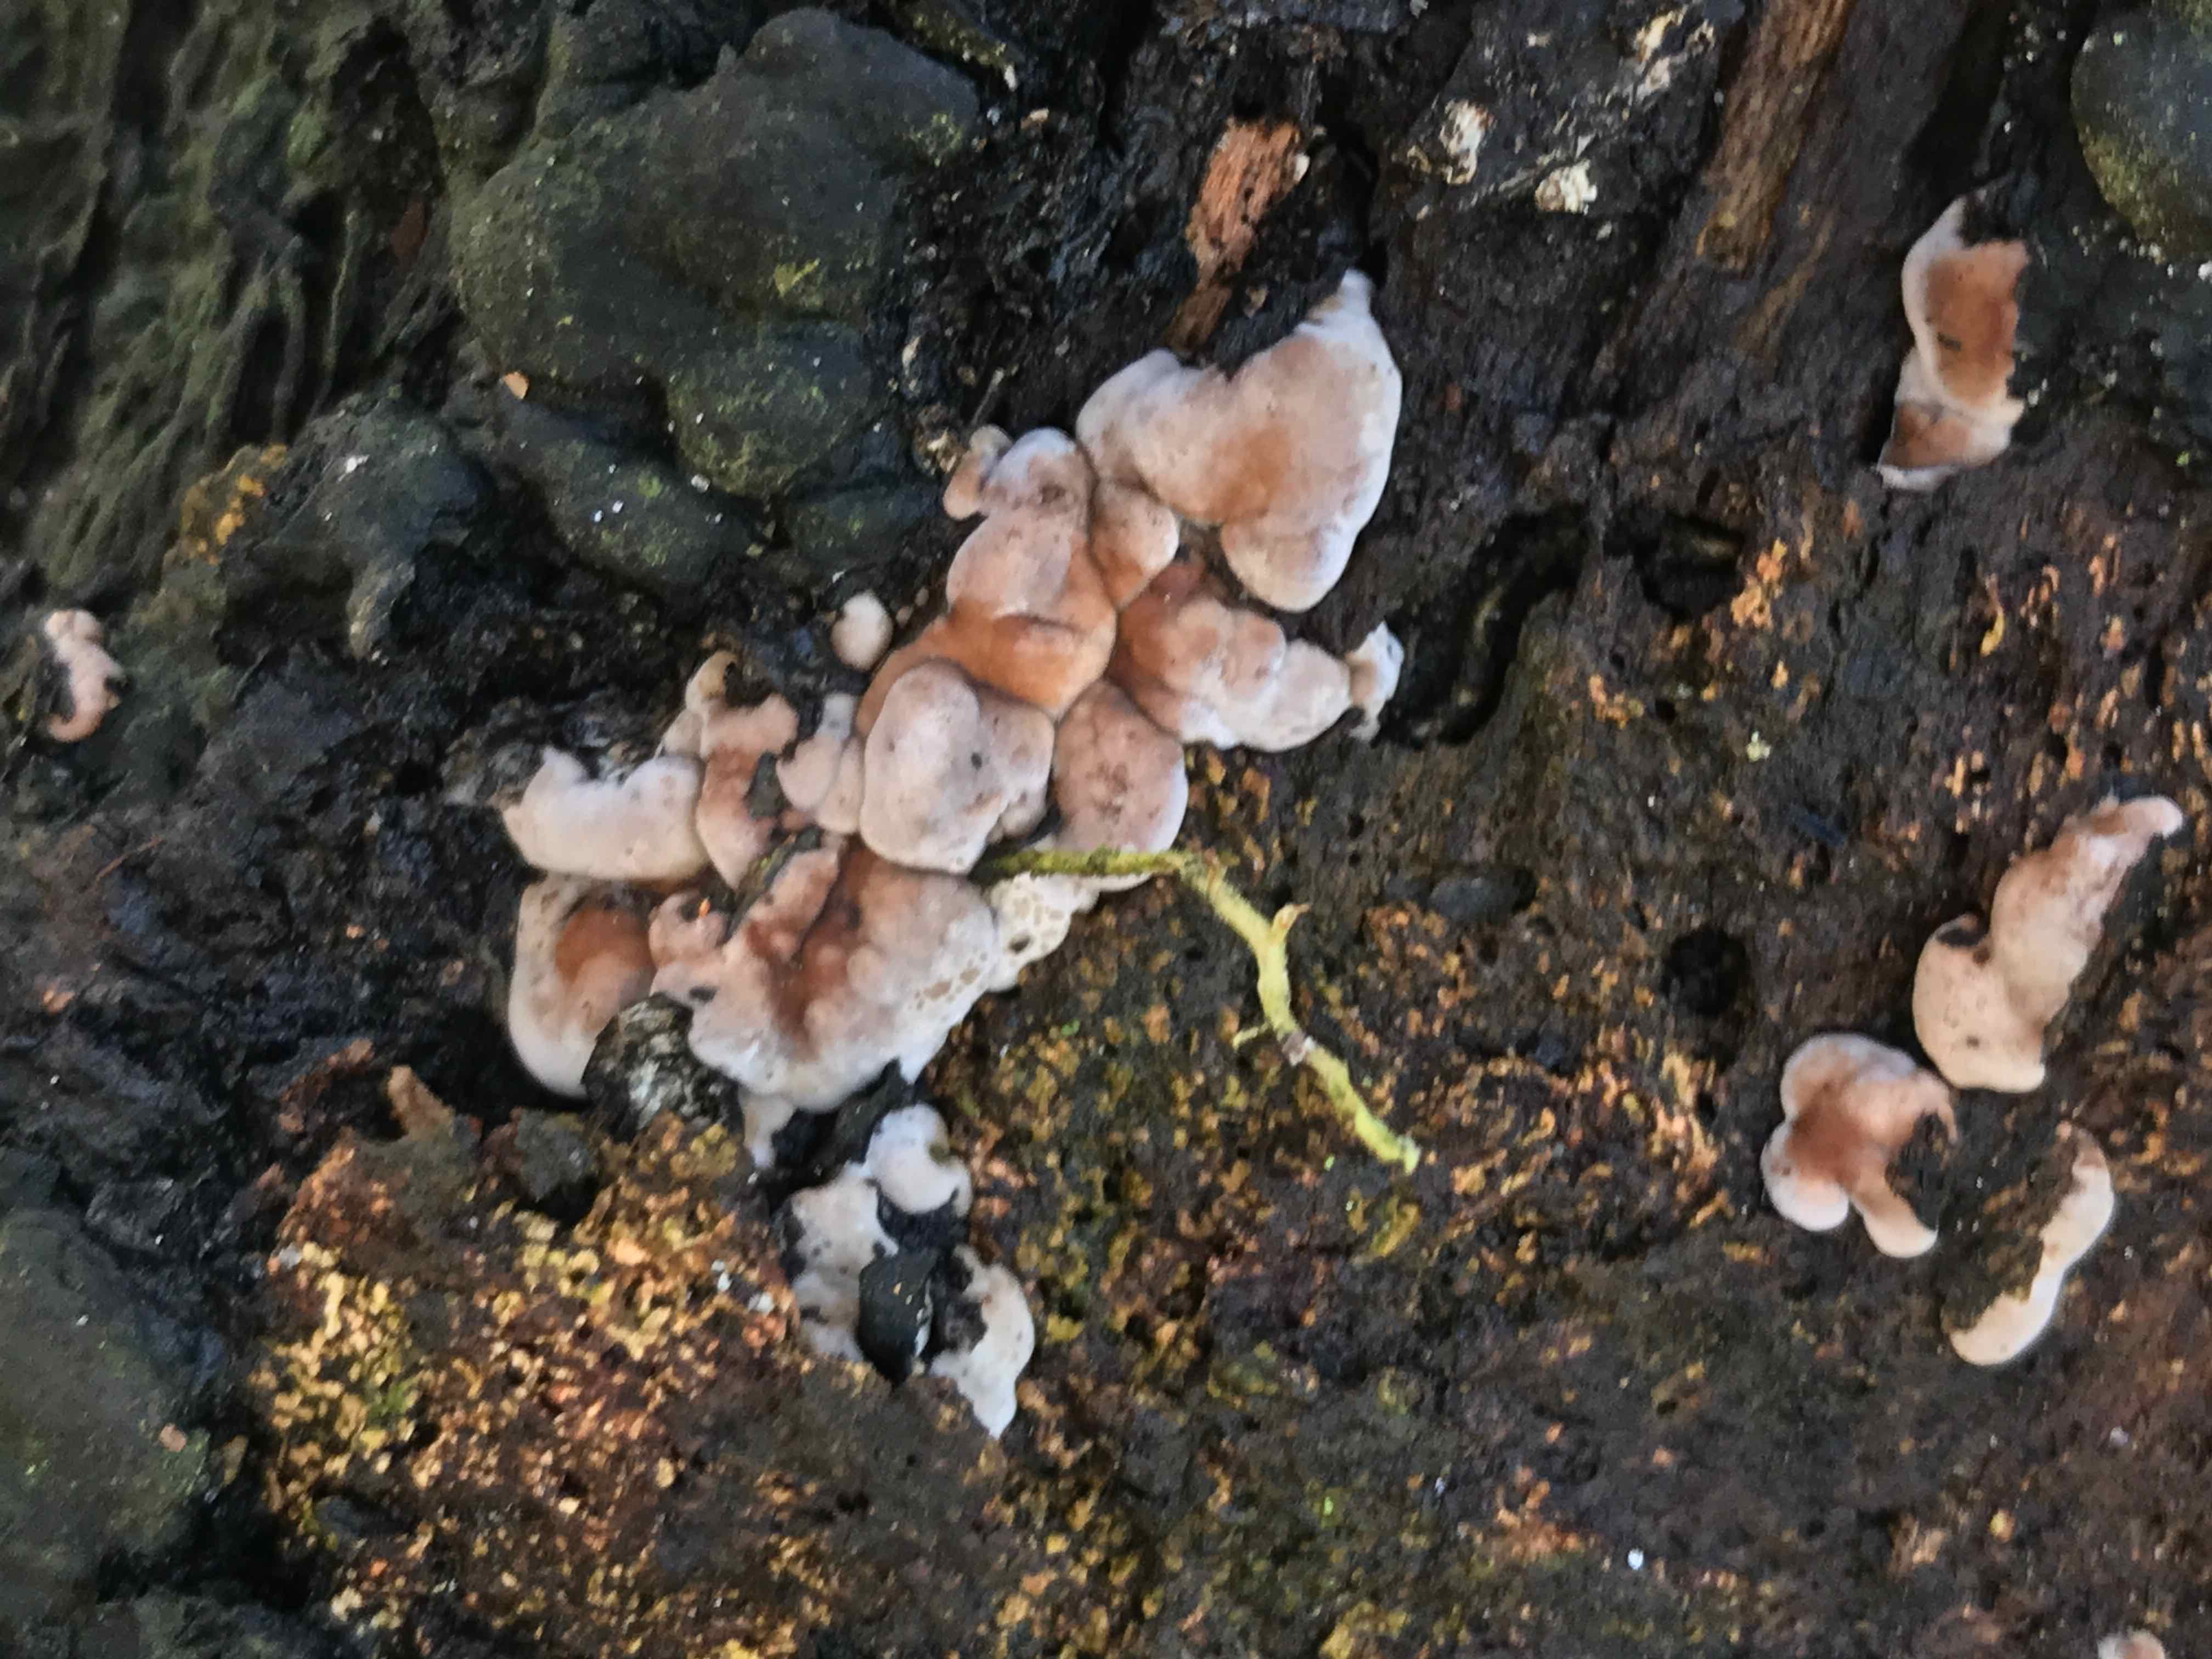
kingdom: Fungi
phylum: Ascomycota
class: Sordariomycetes
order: Xylariales
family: Xylariaceae
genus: Kretzschmaria
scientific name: Kretzschmaria deusta
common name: stor kulsvamp
